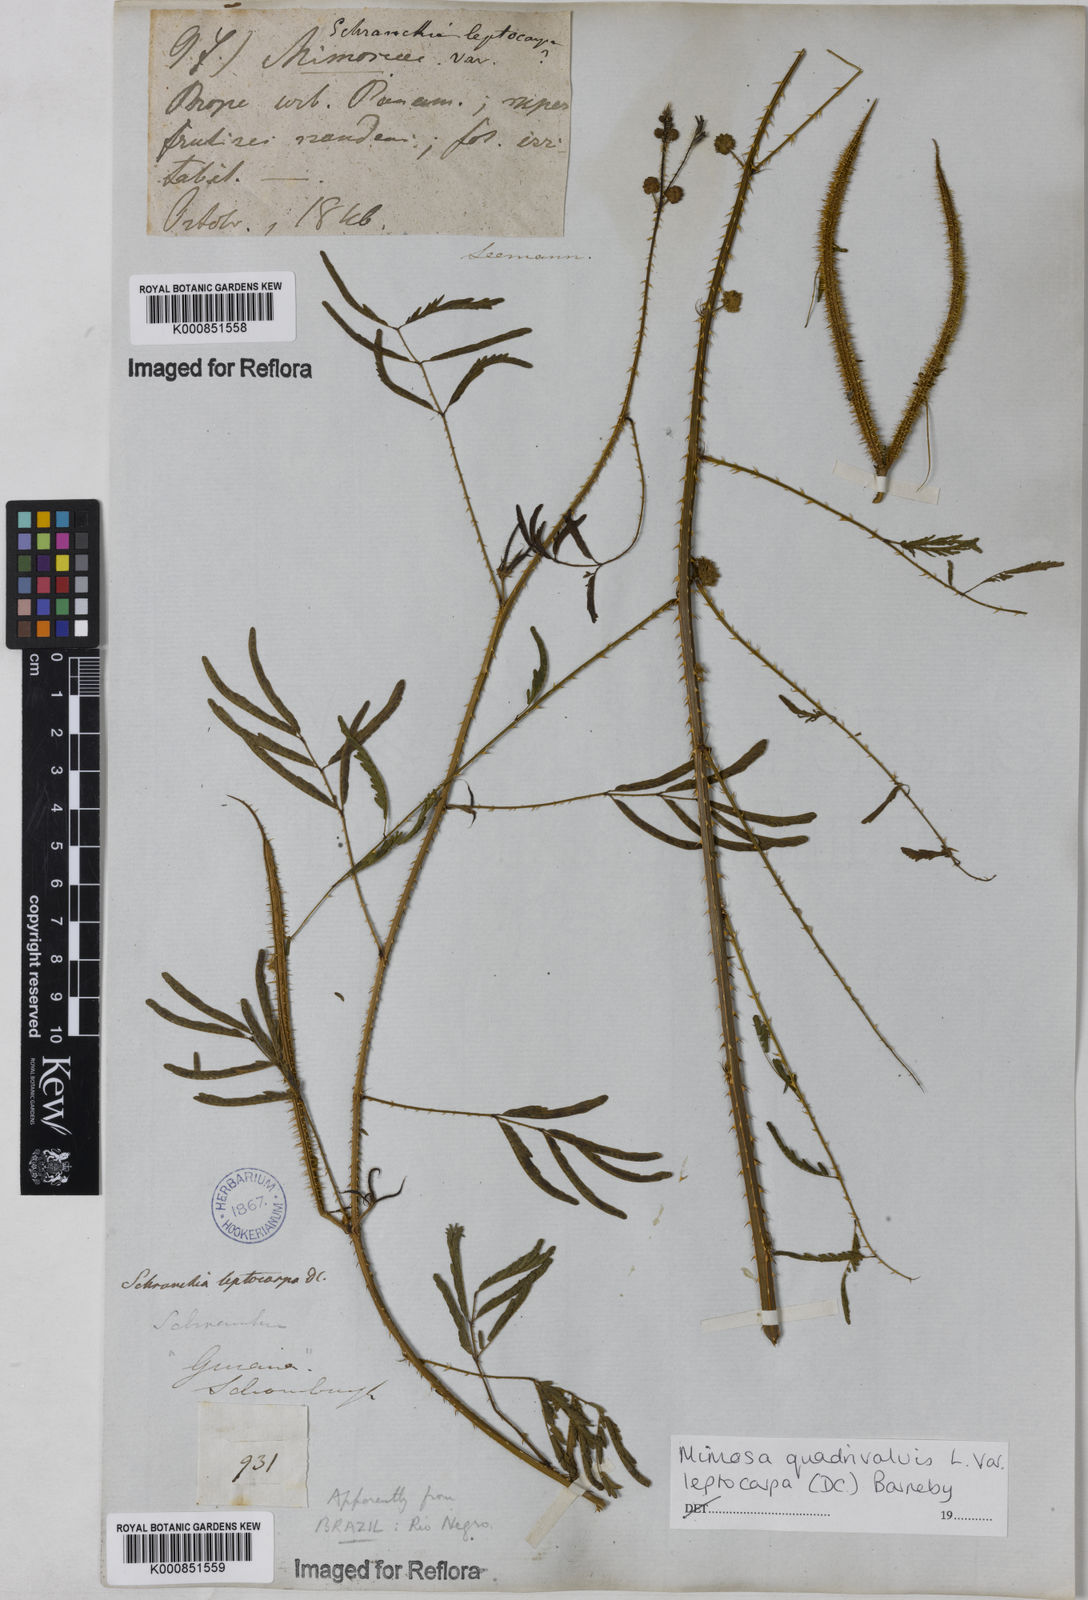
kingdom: Plantae
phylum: Tracheophyta
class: Magnoliopsida
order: Fabales
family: Fabaceae
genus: Mimosa
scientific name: Mimosa candollei
